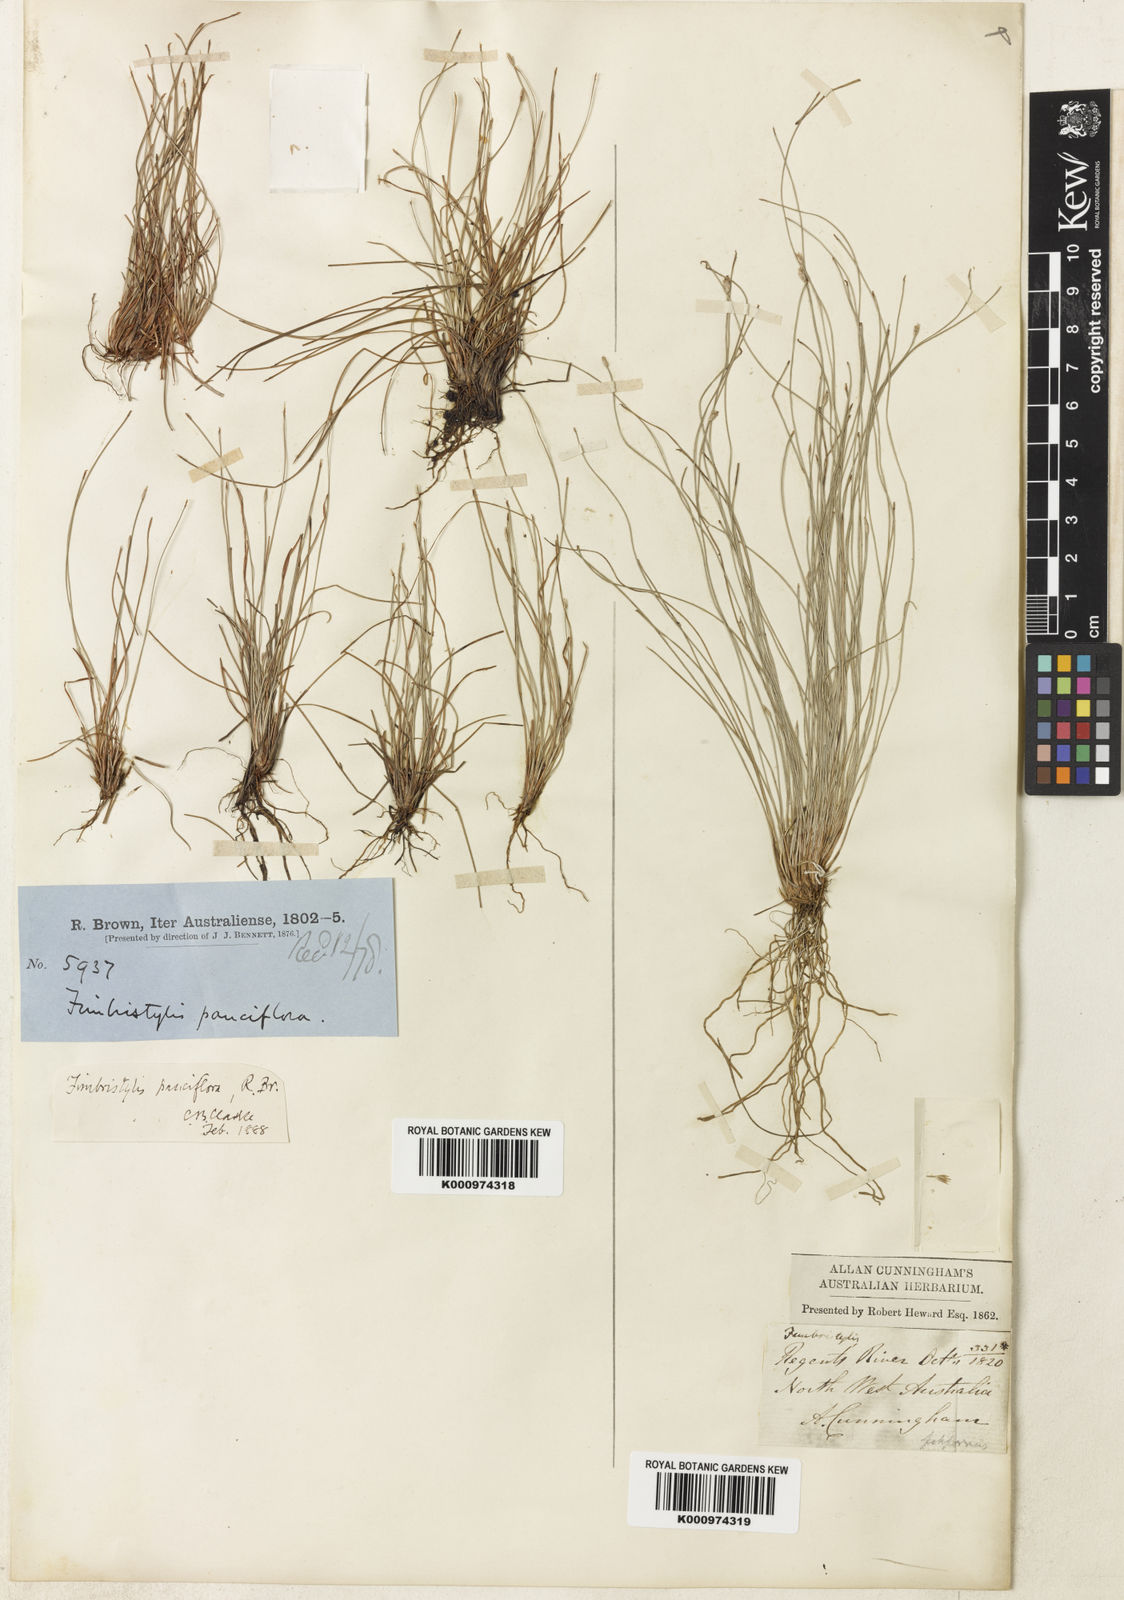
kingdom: Plantae
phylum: Tracheophyta
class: Liliopsida
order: Poales
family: Cyperaceae
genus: Fimbristylis
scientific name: Fimbristylis pauciflora
